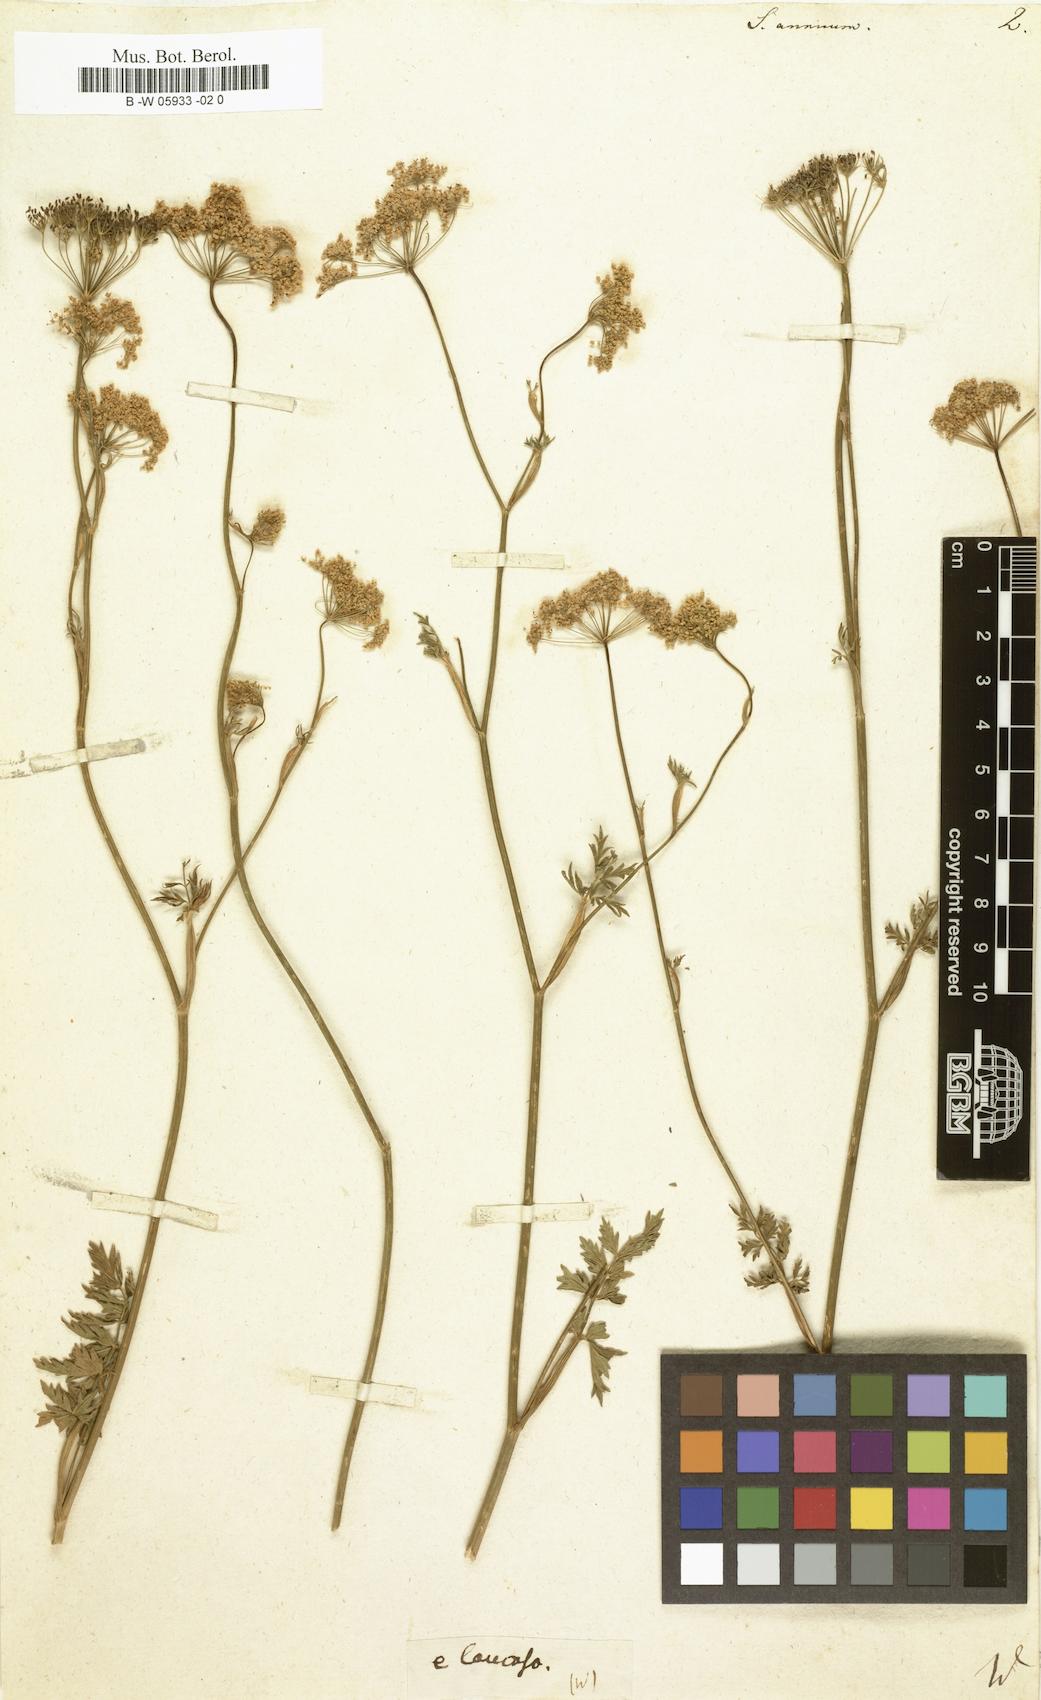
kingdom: Plantae
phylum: Tracheophyta
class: Magnoliopsida
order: Apiales
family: Apiaceae
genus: Seseli
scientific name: Seseli annuum
